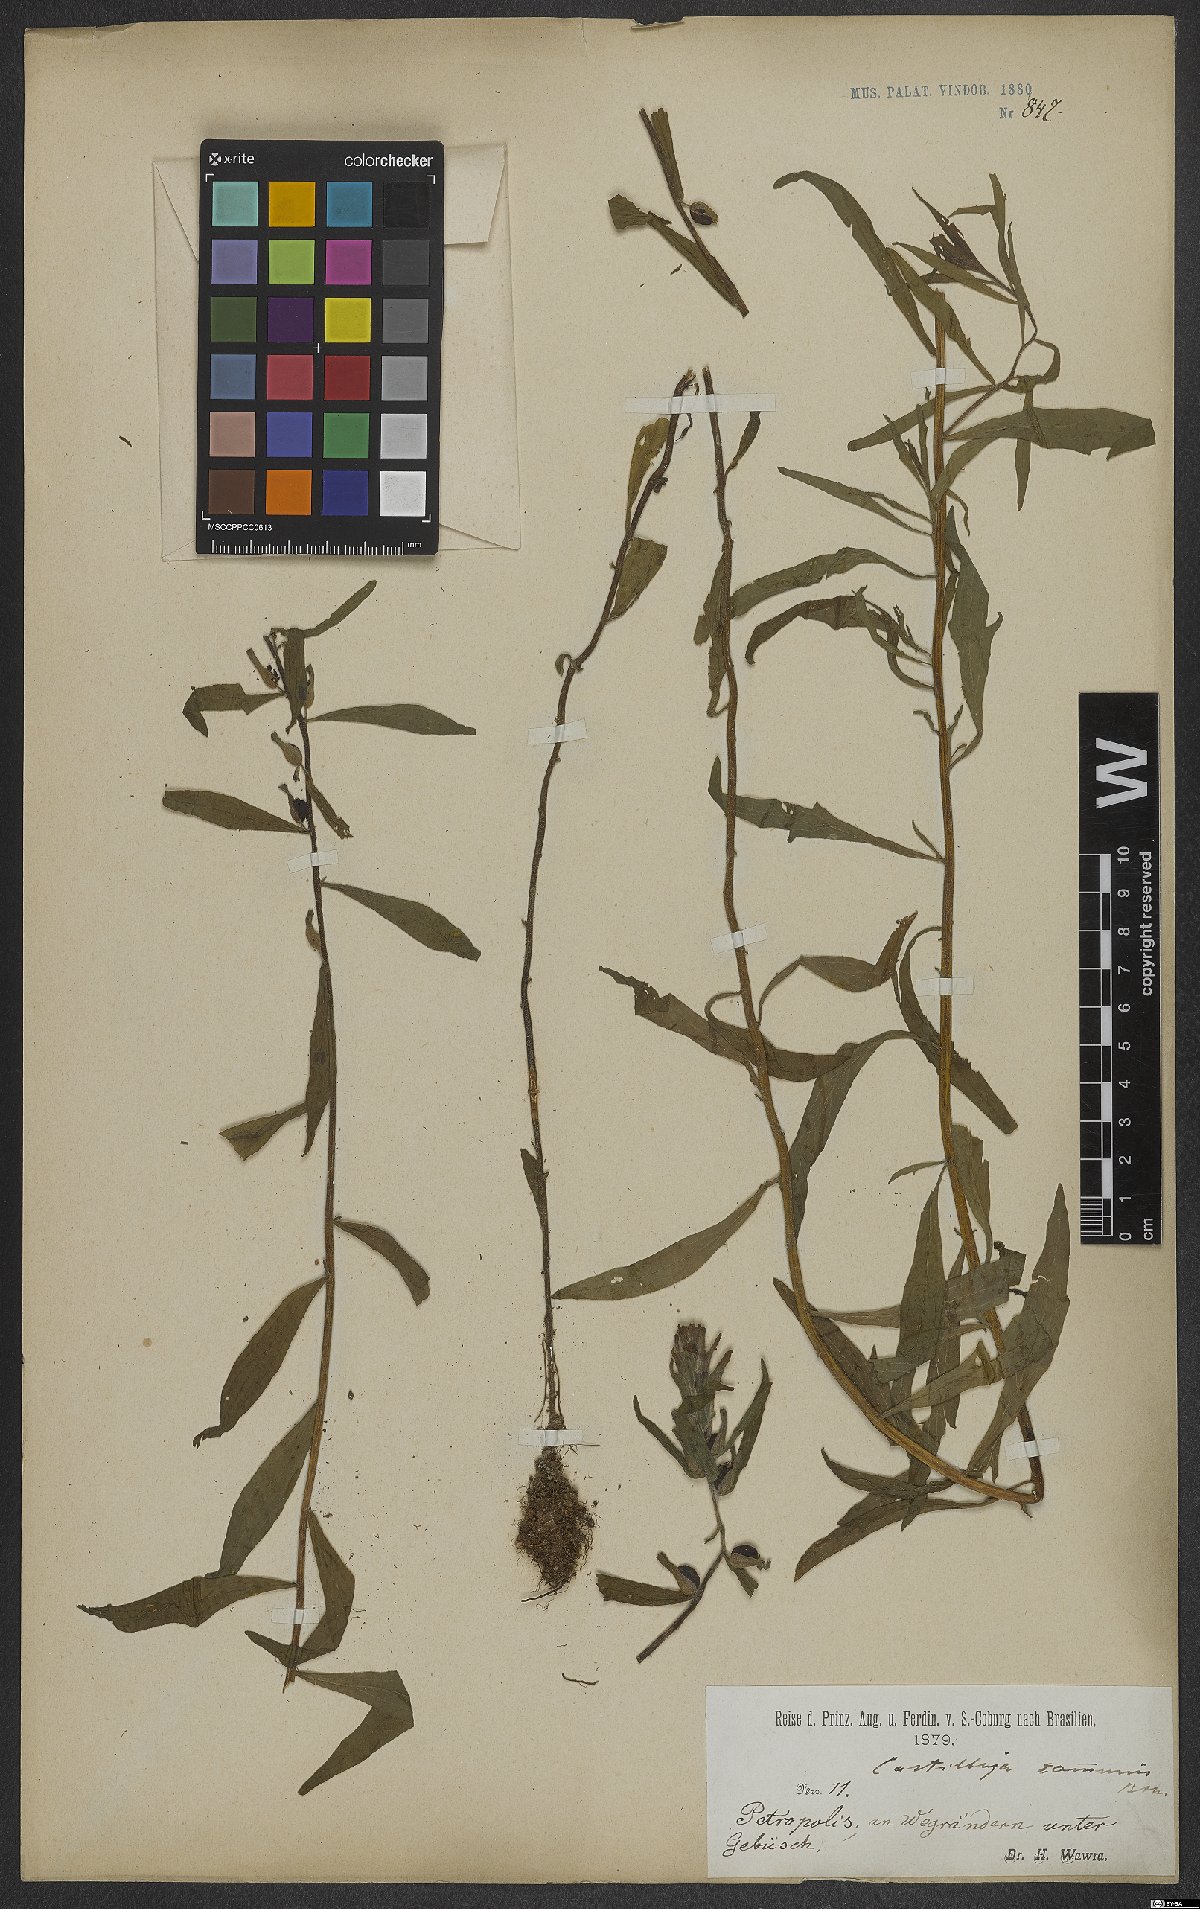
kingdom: Plantae
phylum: Tracheophyta
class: Magnoliopsida
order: Lamiales
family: Orobanchaceae
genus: Castilleja
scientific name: Castilleja arvensis
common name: Indian paintbrush
